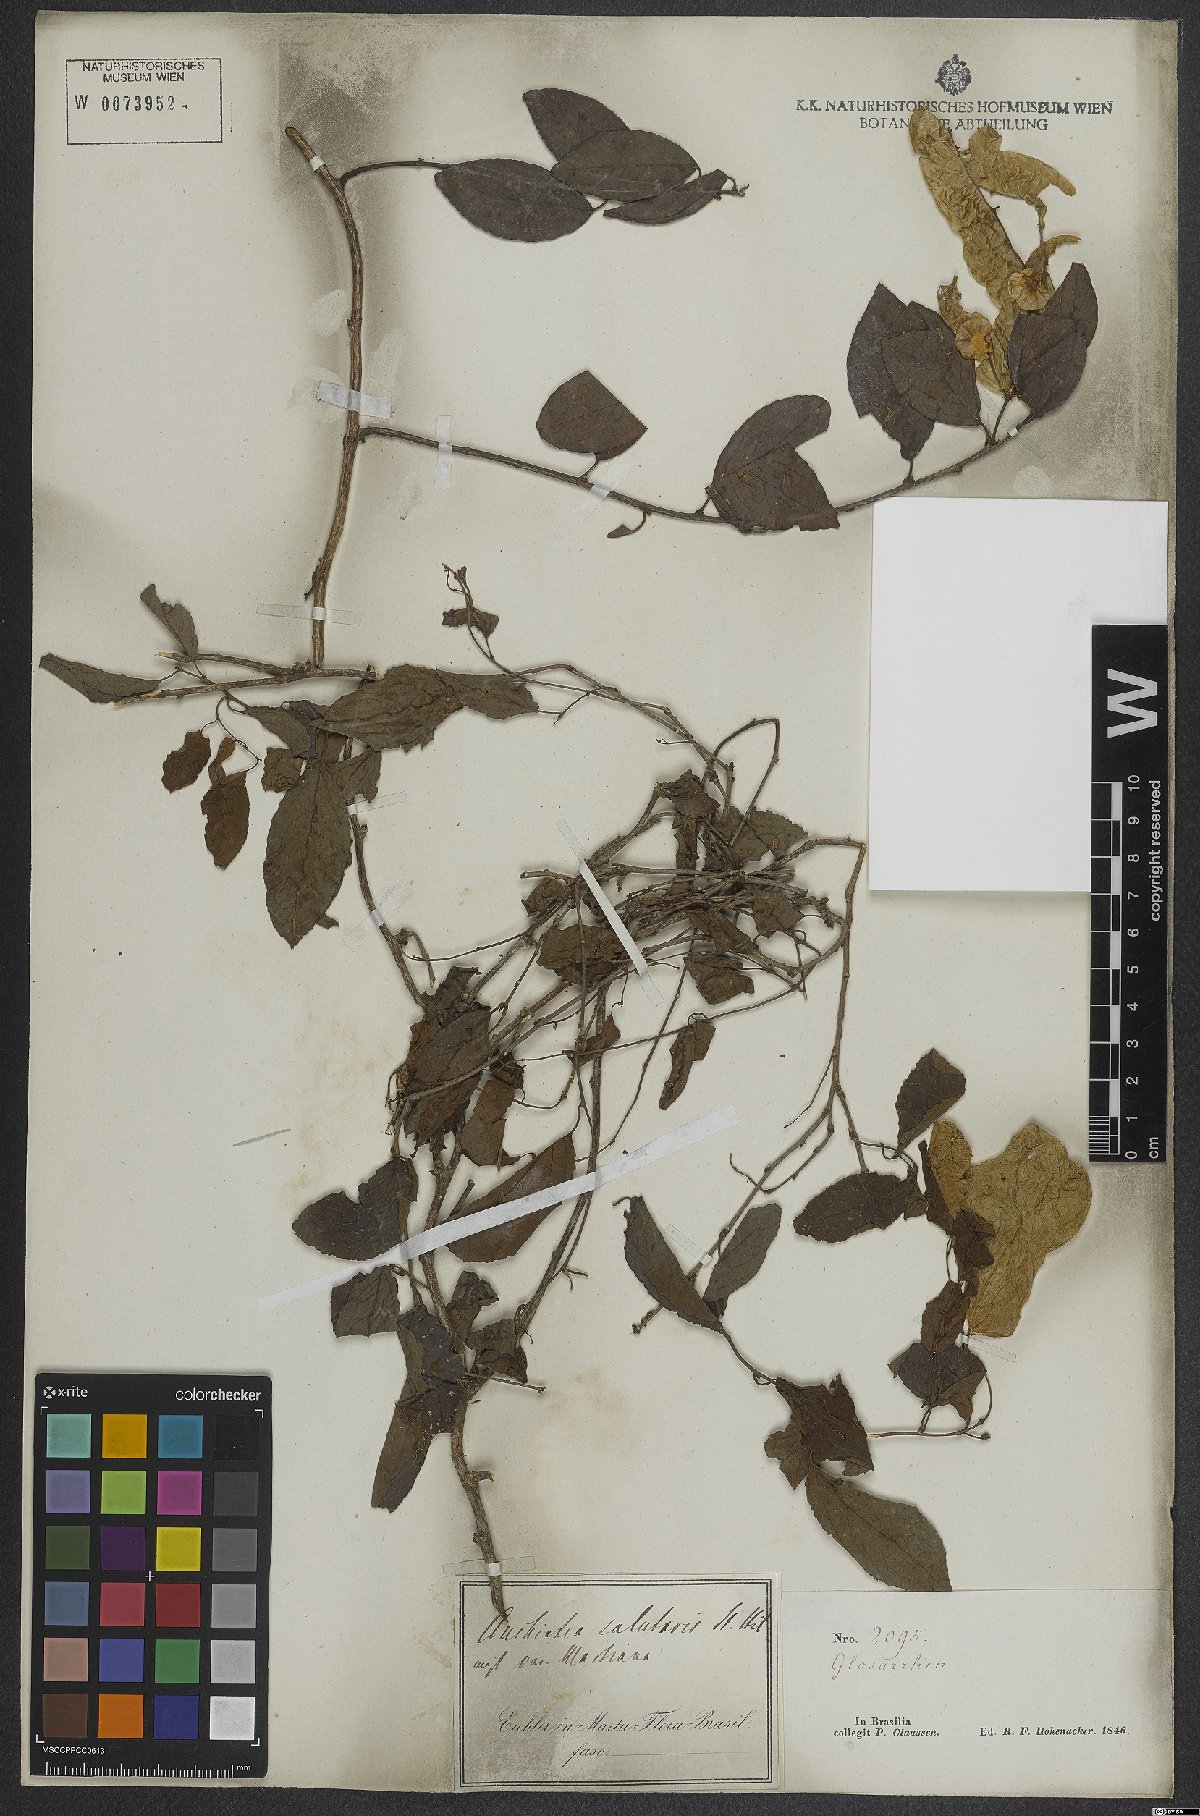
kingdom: Plantae
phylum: Tracheophyta
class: Magnoliopsida
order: Malpighiales
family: Violaceae
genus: Anchietea
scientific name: Anchietea pyrifolia
